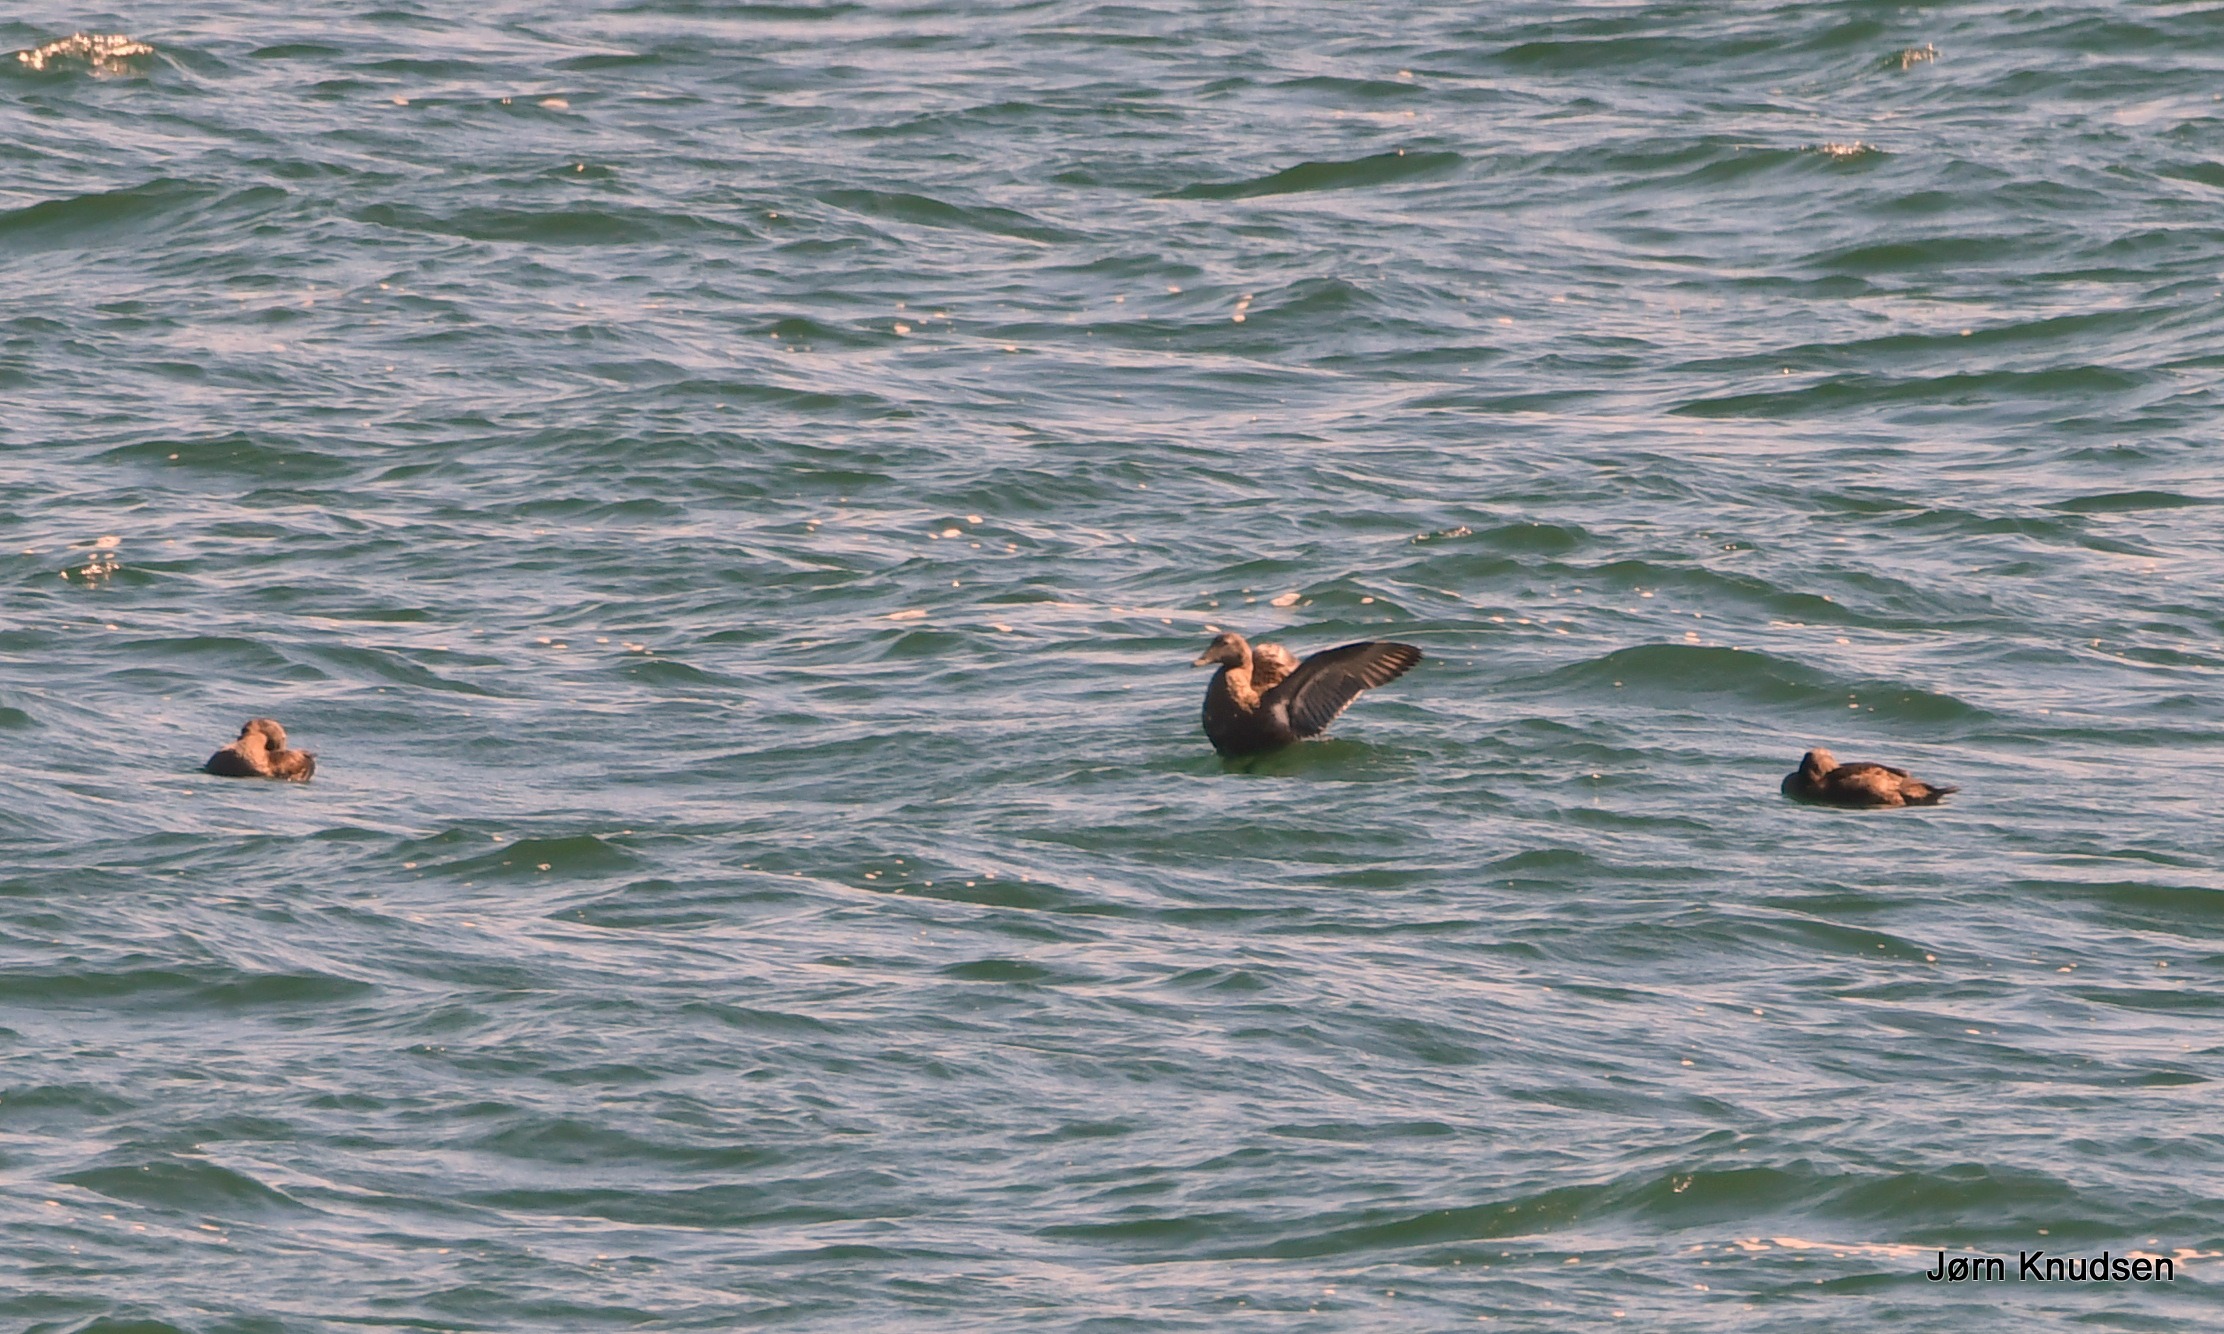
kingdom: Animalia
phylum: Chordata
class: Aves
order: Anseriformes
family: Anatidae
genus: Somateria
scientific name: Somateria mollissima
